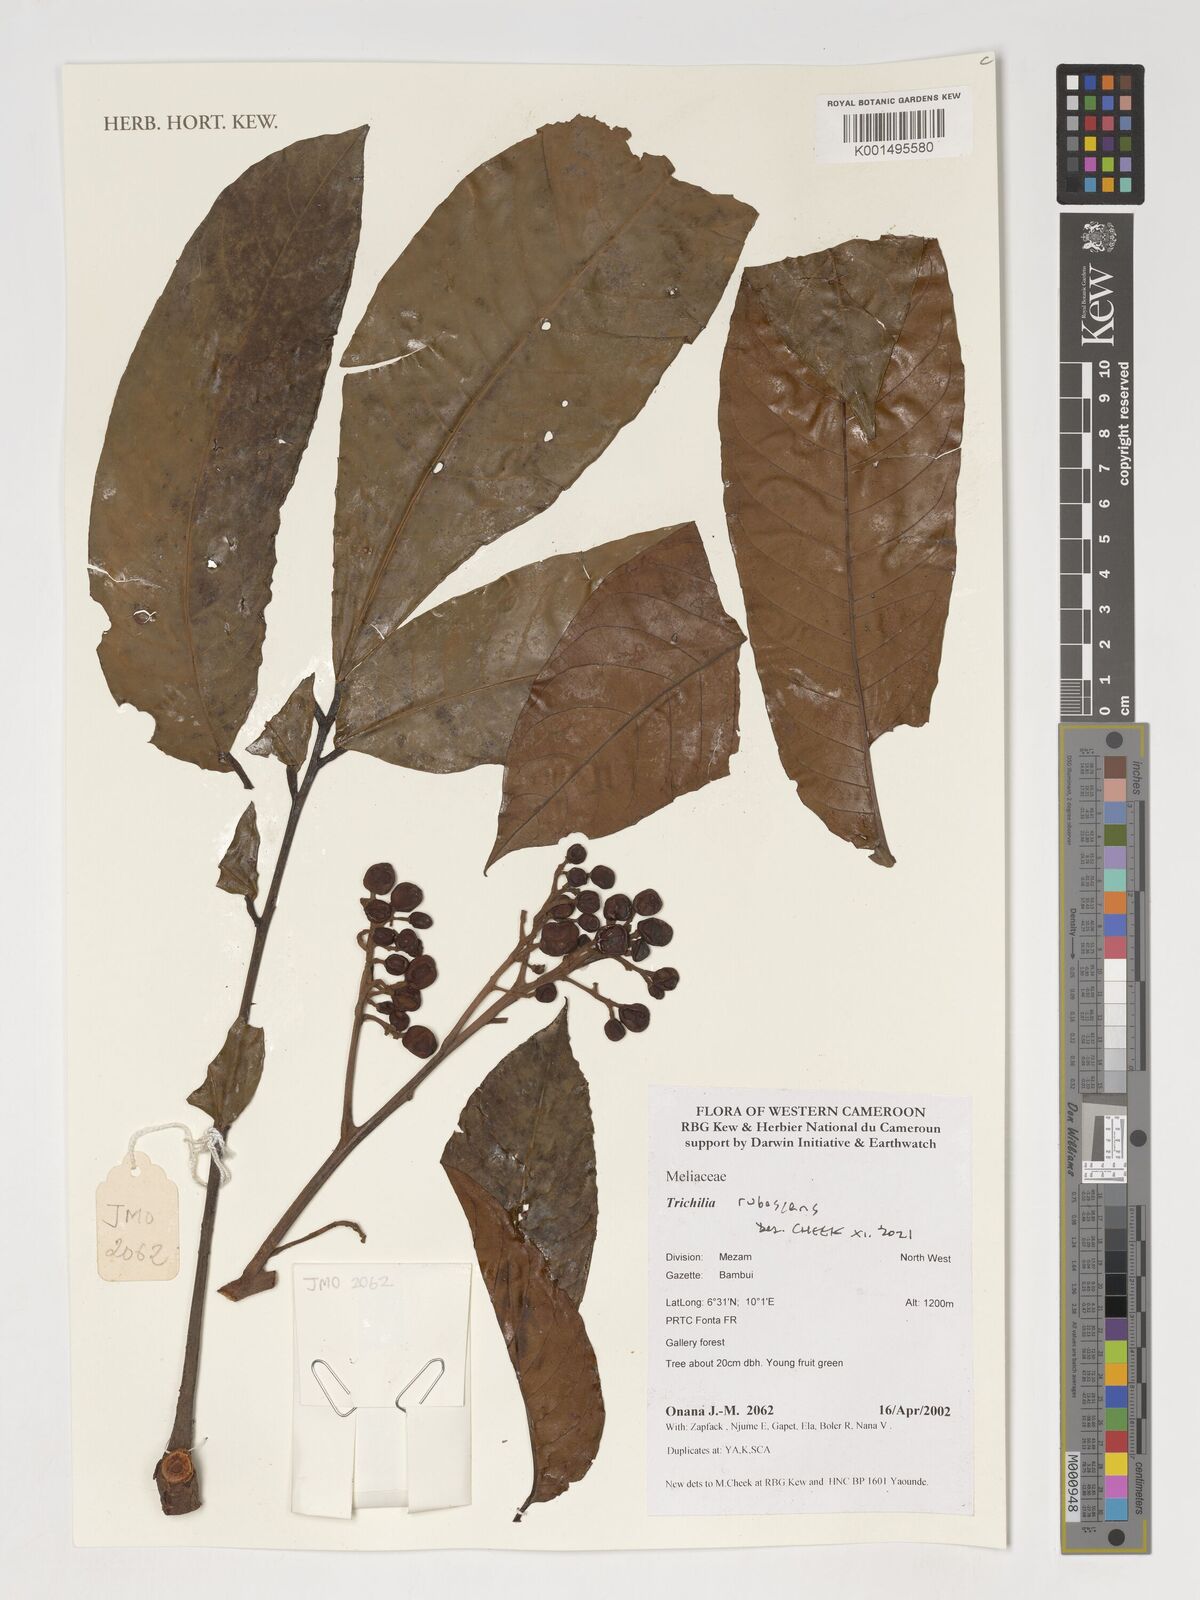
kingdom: Plantae
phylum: Tracheophyta
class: Magnoliopsida
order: Sapindales
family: Meliaceae
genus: Trichilia
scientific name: Trichilia rubescens
